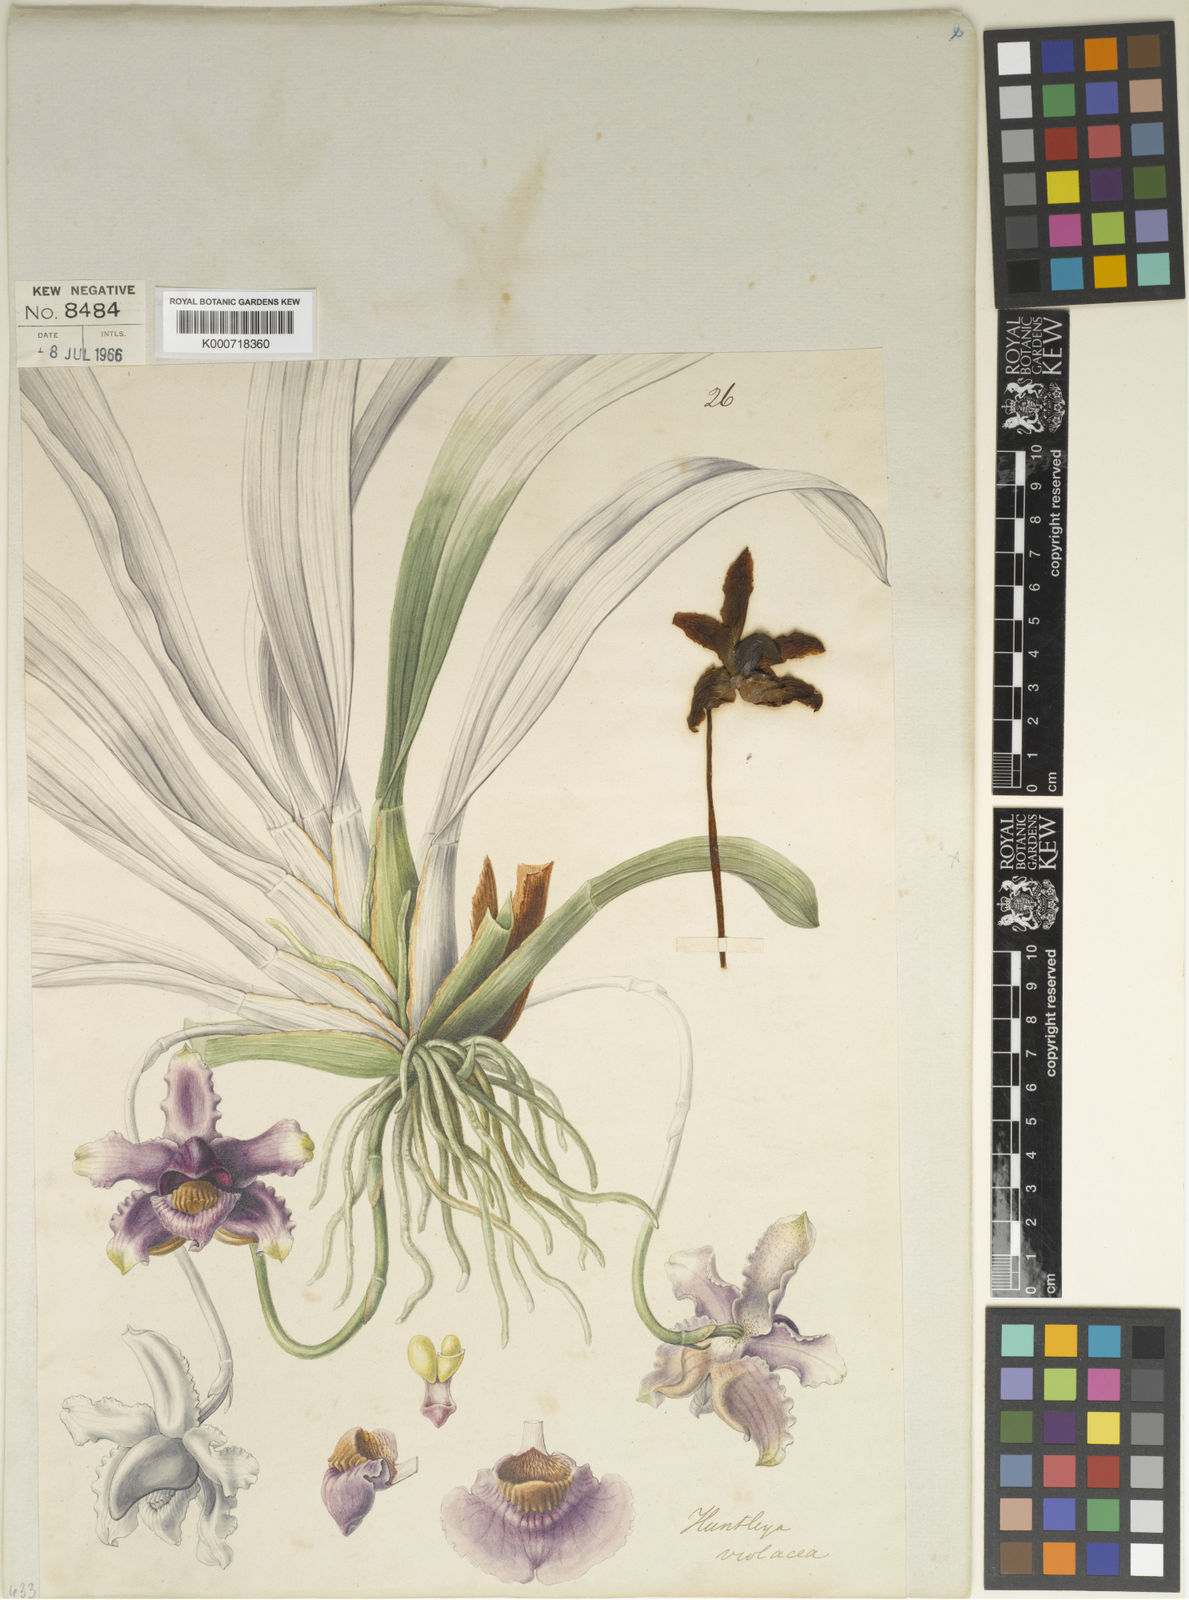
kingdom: Plantae
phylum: Tracheophyta
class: Liliopsida
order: Asparagales
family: Orchidaceae
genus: Pescatoria
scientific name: Pescatoria violacea
